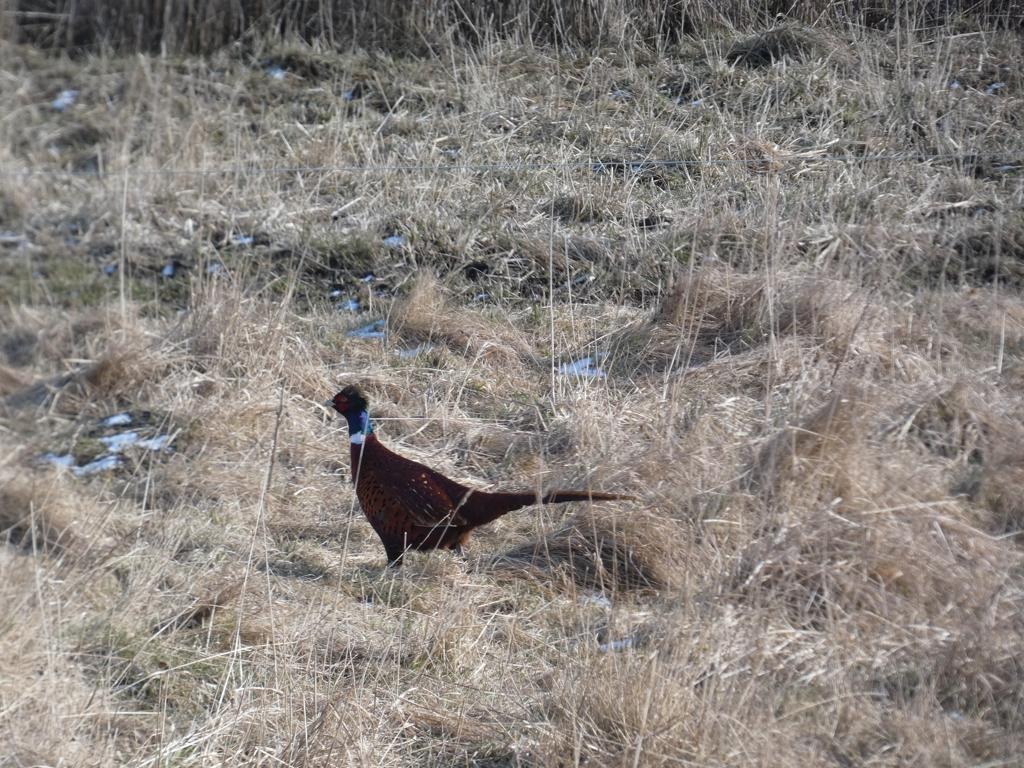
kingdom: Animalia
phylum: Chordata
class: Aves
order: Galliformes
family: Phasianidae
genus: Phasianus
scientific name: Phasianus colchicus
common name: Fasan
